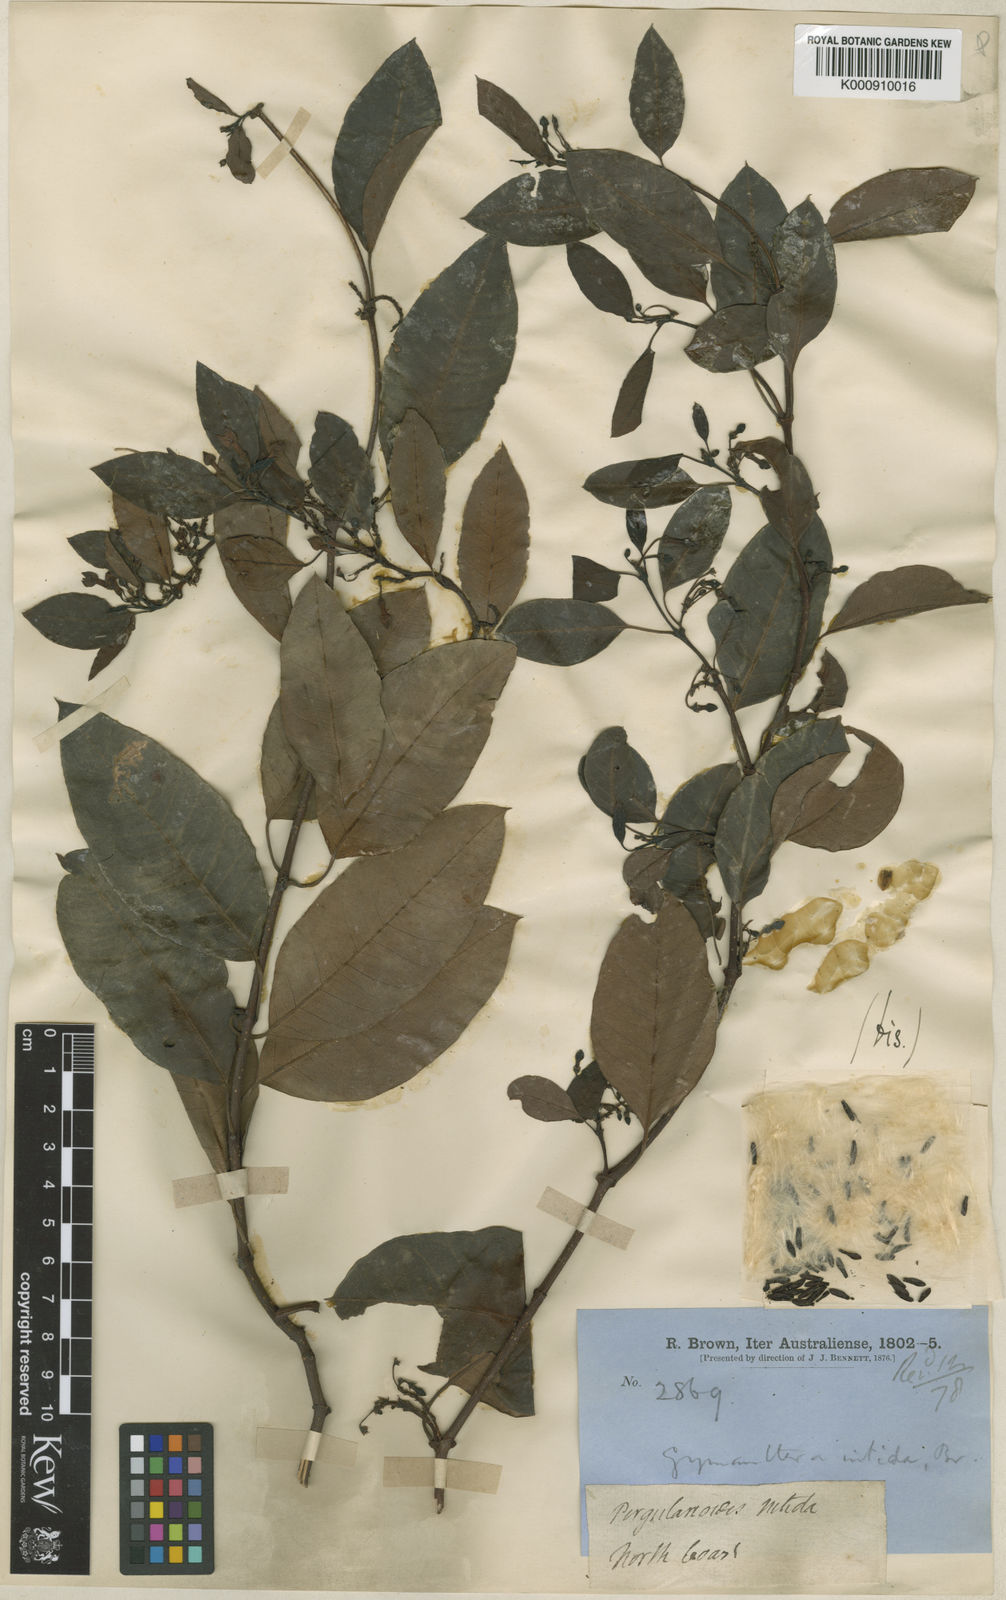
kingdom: Plantae
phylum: Tracheophyta
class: Magnoliopsida
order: Gentianales
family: Apocynaceae
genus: Gymnanthera
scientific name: Gymnanthera oblonga
